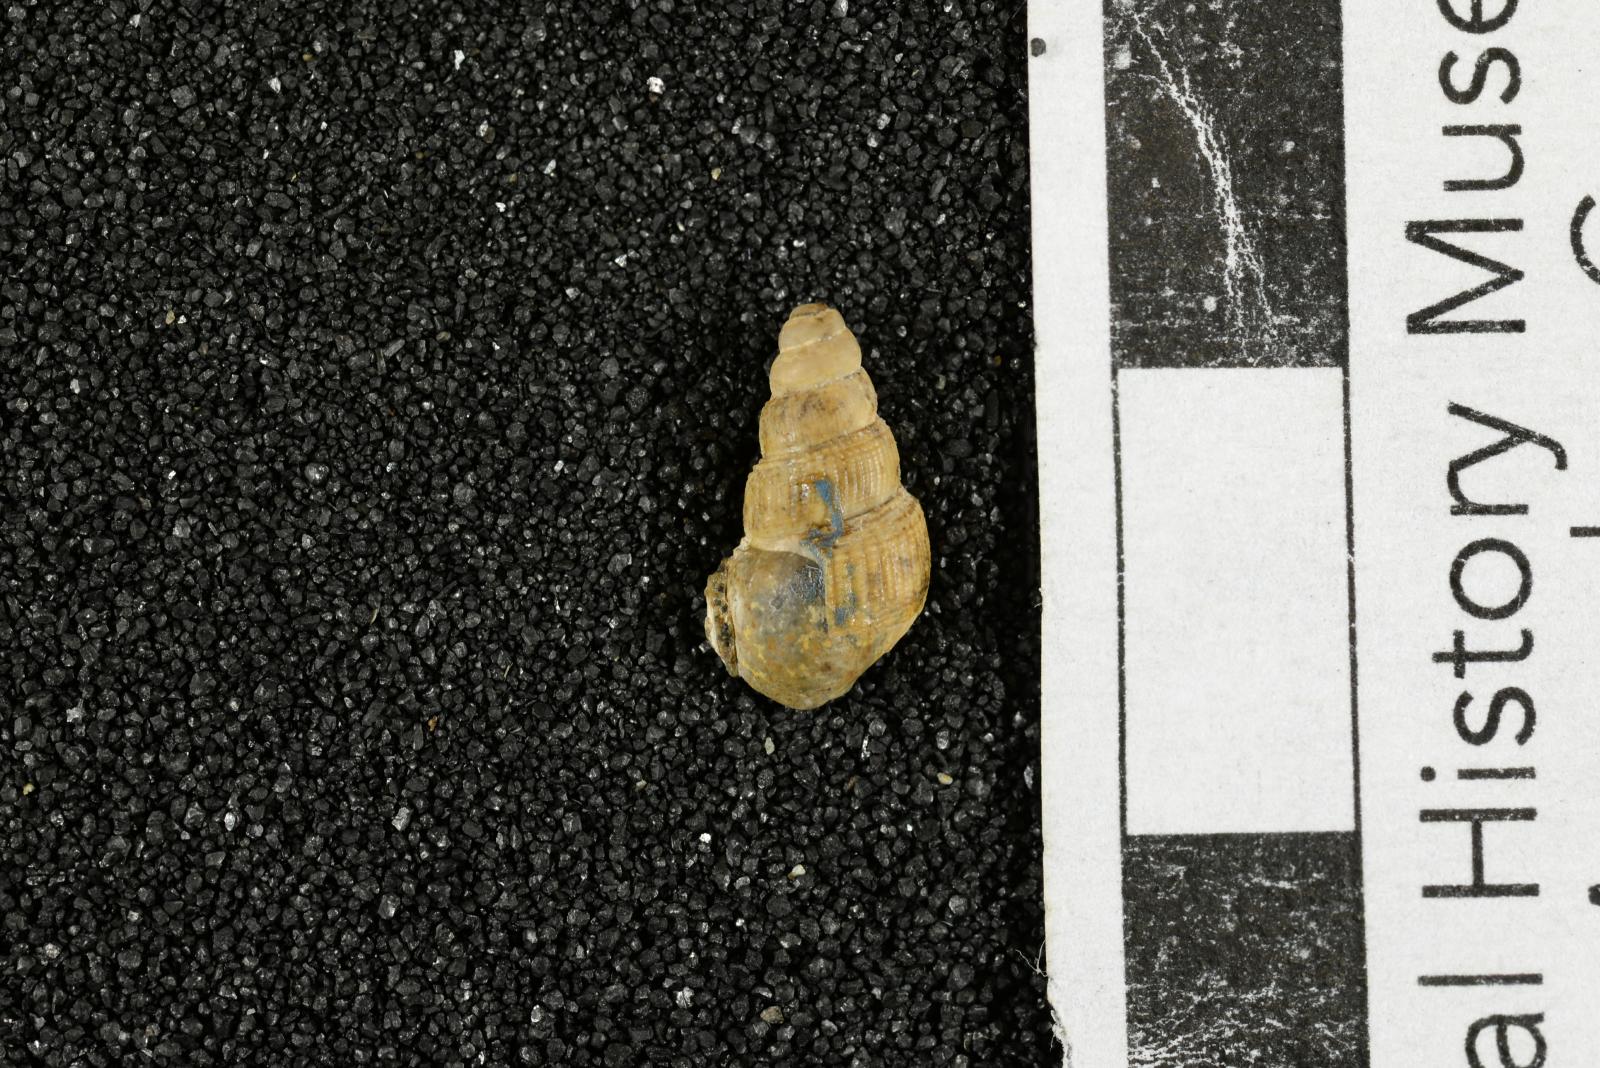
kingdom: Animalia
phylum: Mollusca
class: Gastropoda
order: Littorinimorpha
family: Aporrhaidae
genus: Latiala
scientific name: Latiala sigma
